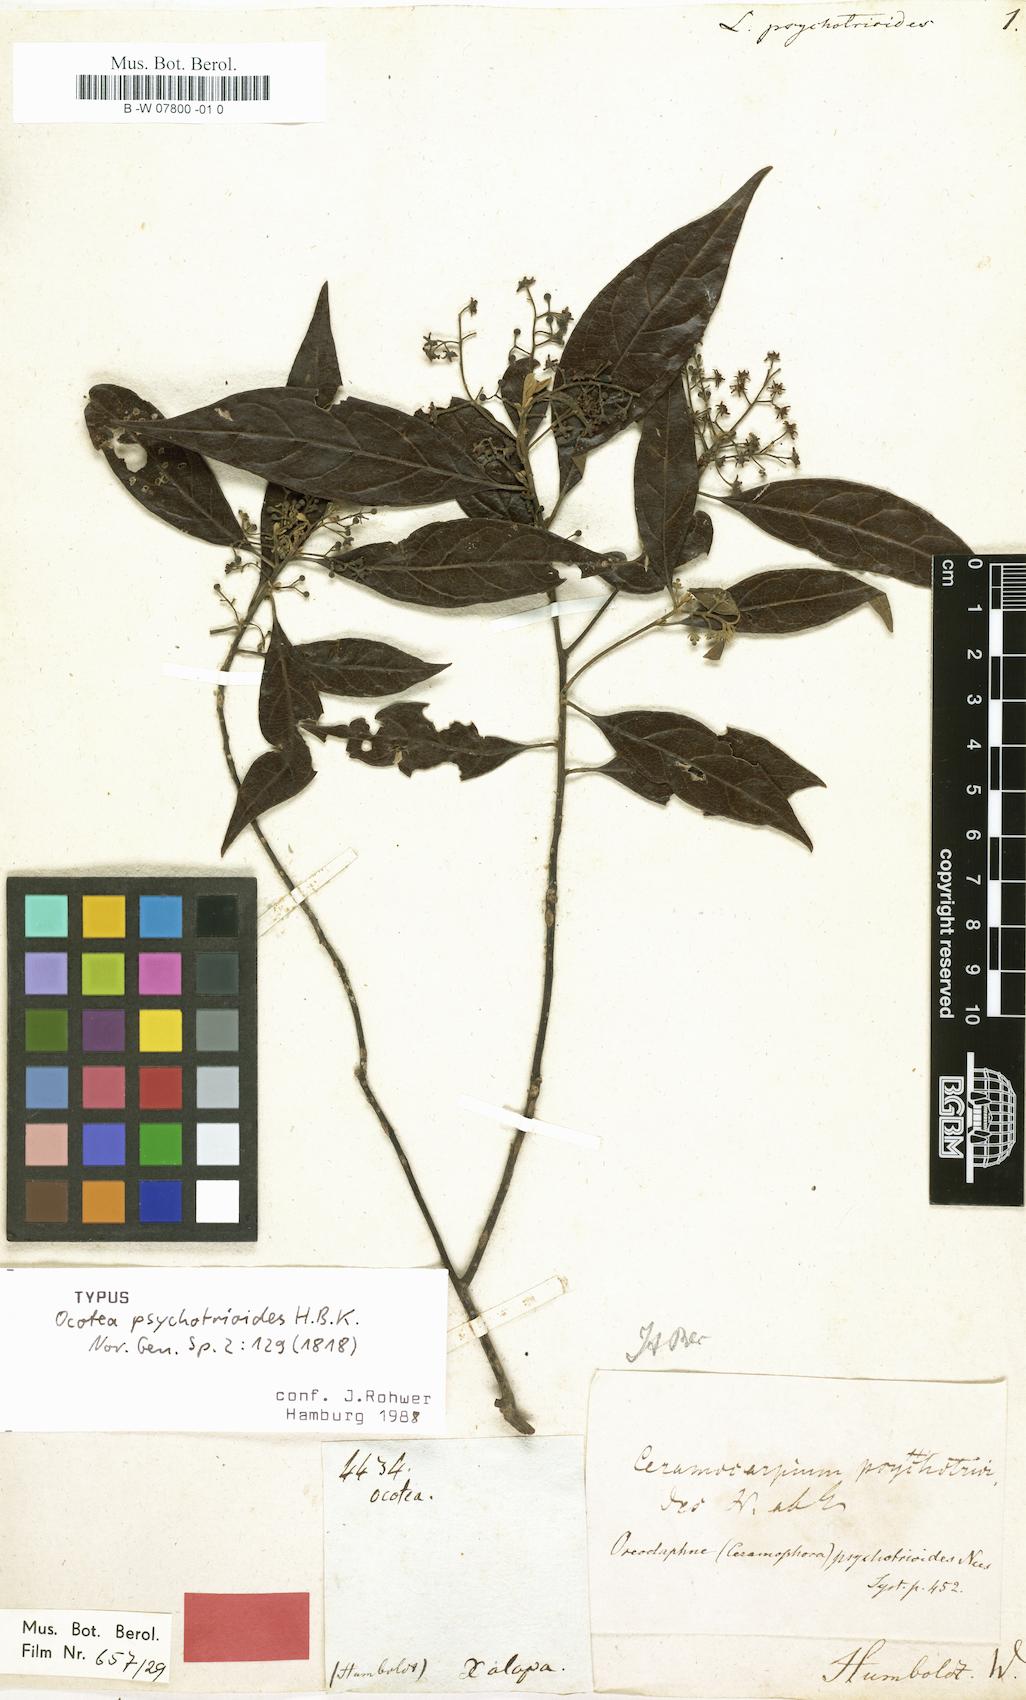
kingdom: Plantae
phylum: Tracheophyta
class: Magnoliopsida
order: Laurales
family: Lauraceae
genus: Ocotea
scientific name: Ocotea psychotrioides
